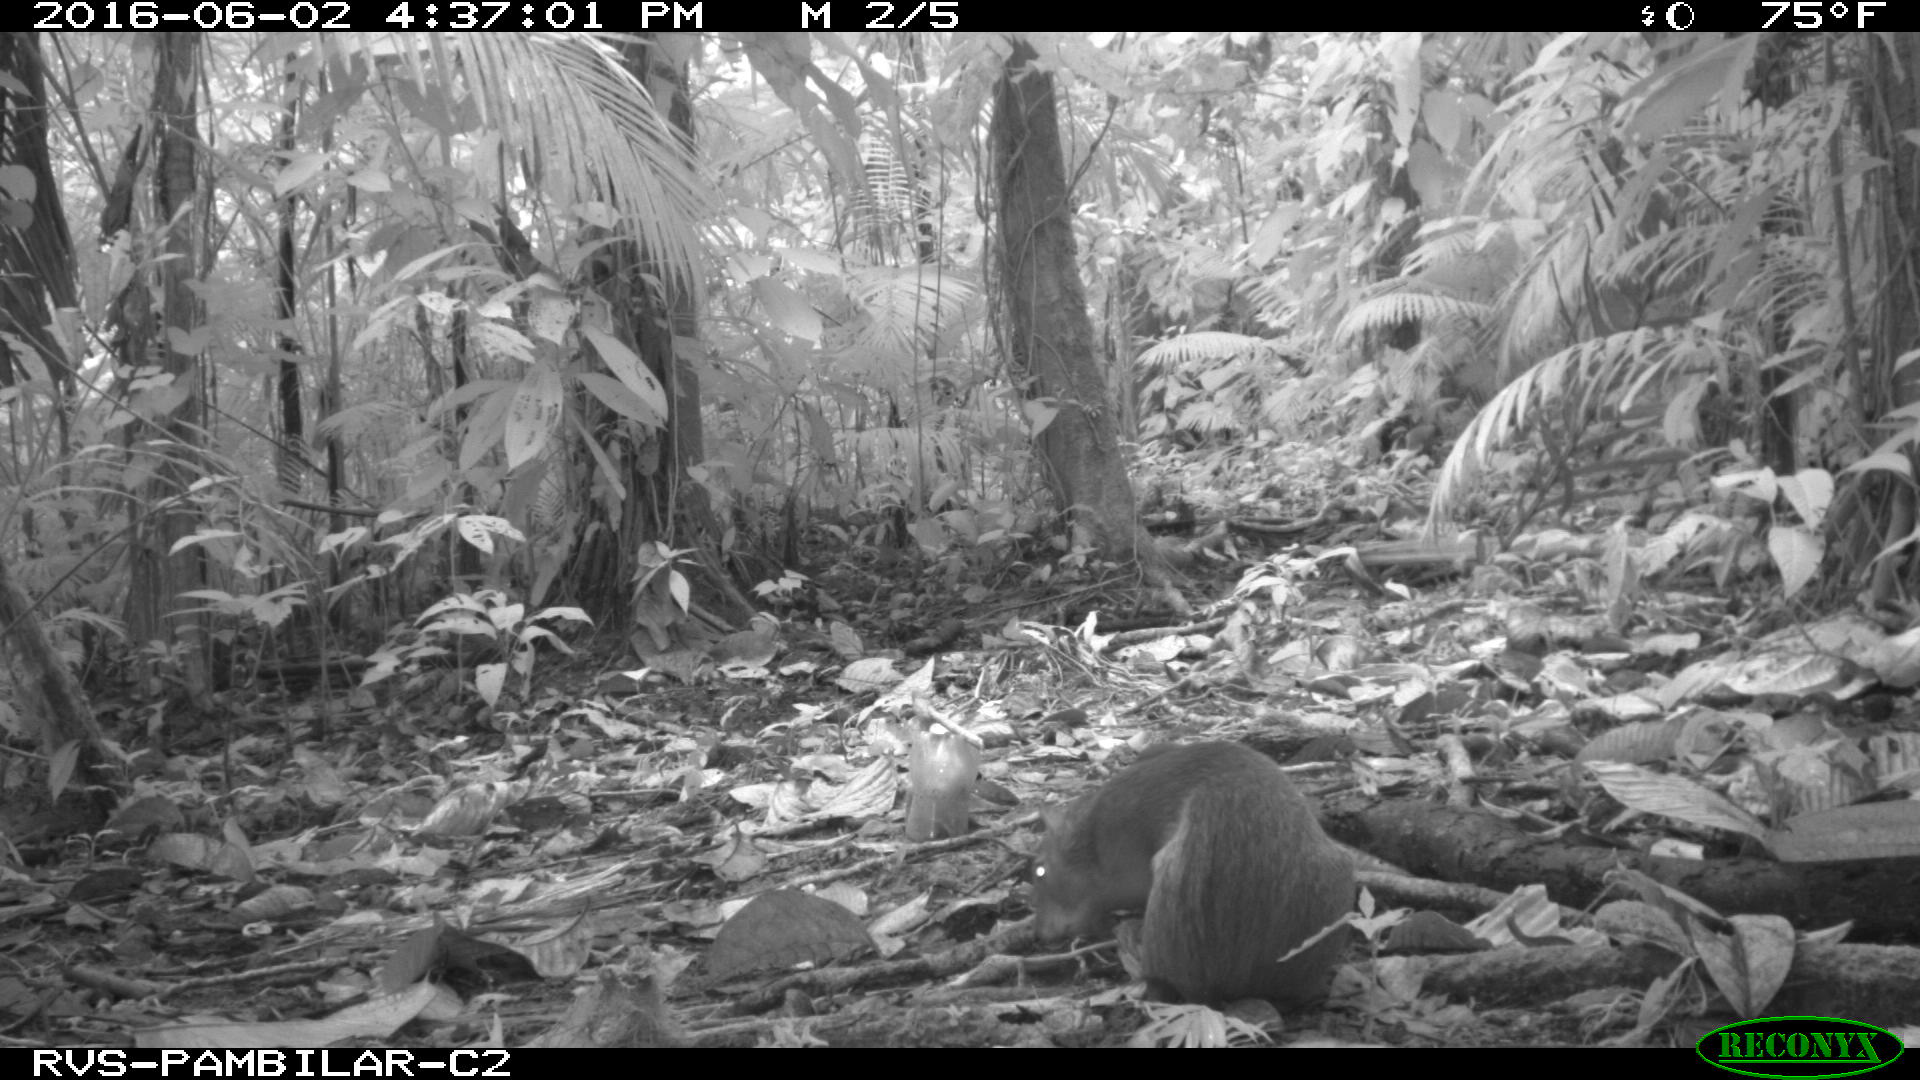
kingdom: Animalia
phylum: Chordata
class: Mammalia
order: Rodentia
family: Dasyproctidae
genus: Dasyprocta
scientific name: Dasyprocta punctata
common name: Central american agouti
